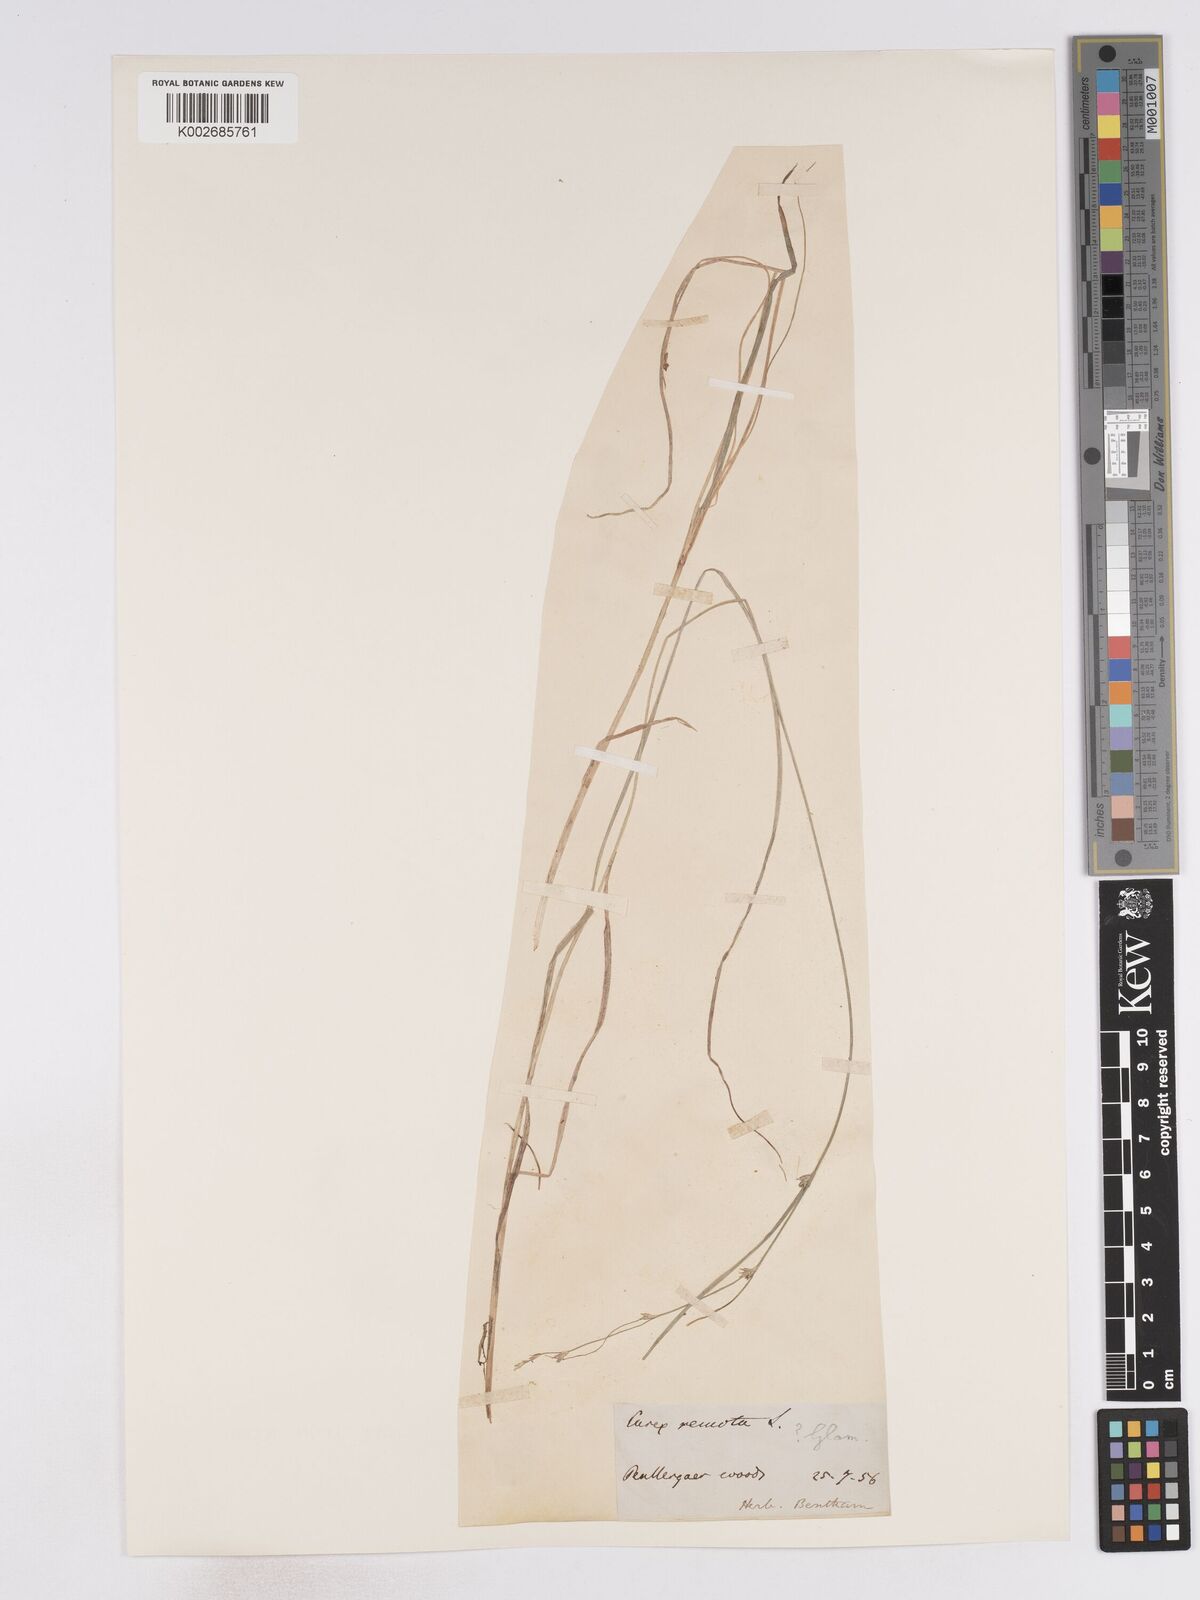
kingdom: Plantae
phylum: Tracheophyta
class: Liliopsida
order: Poales
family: Cyperaceae
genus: Carex
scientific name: Carex remota
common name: Remote sedge
